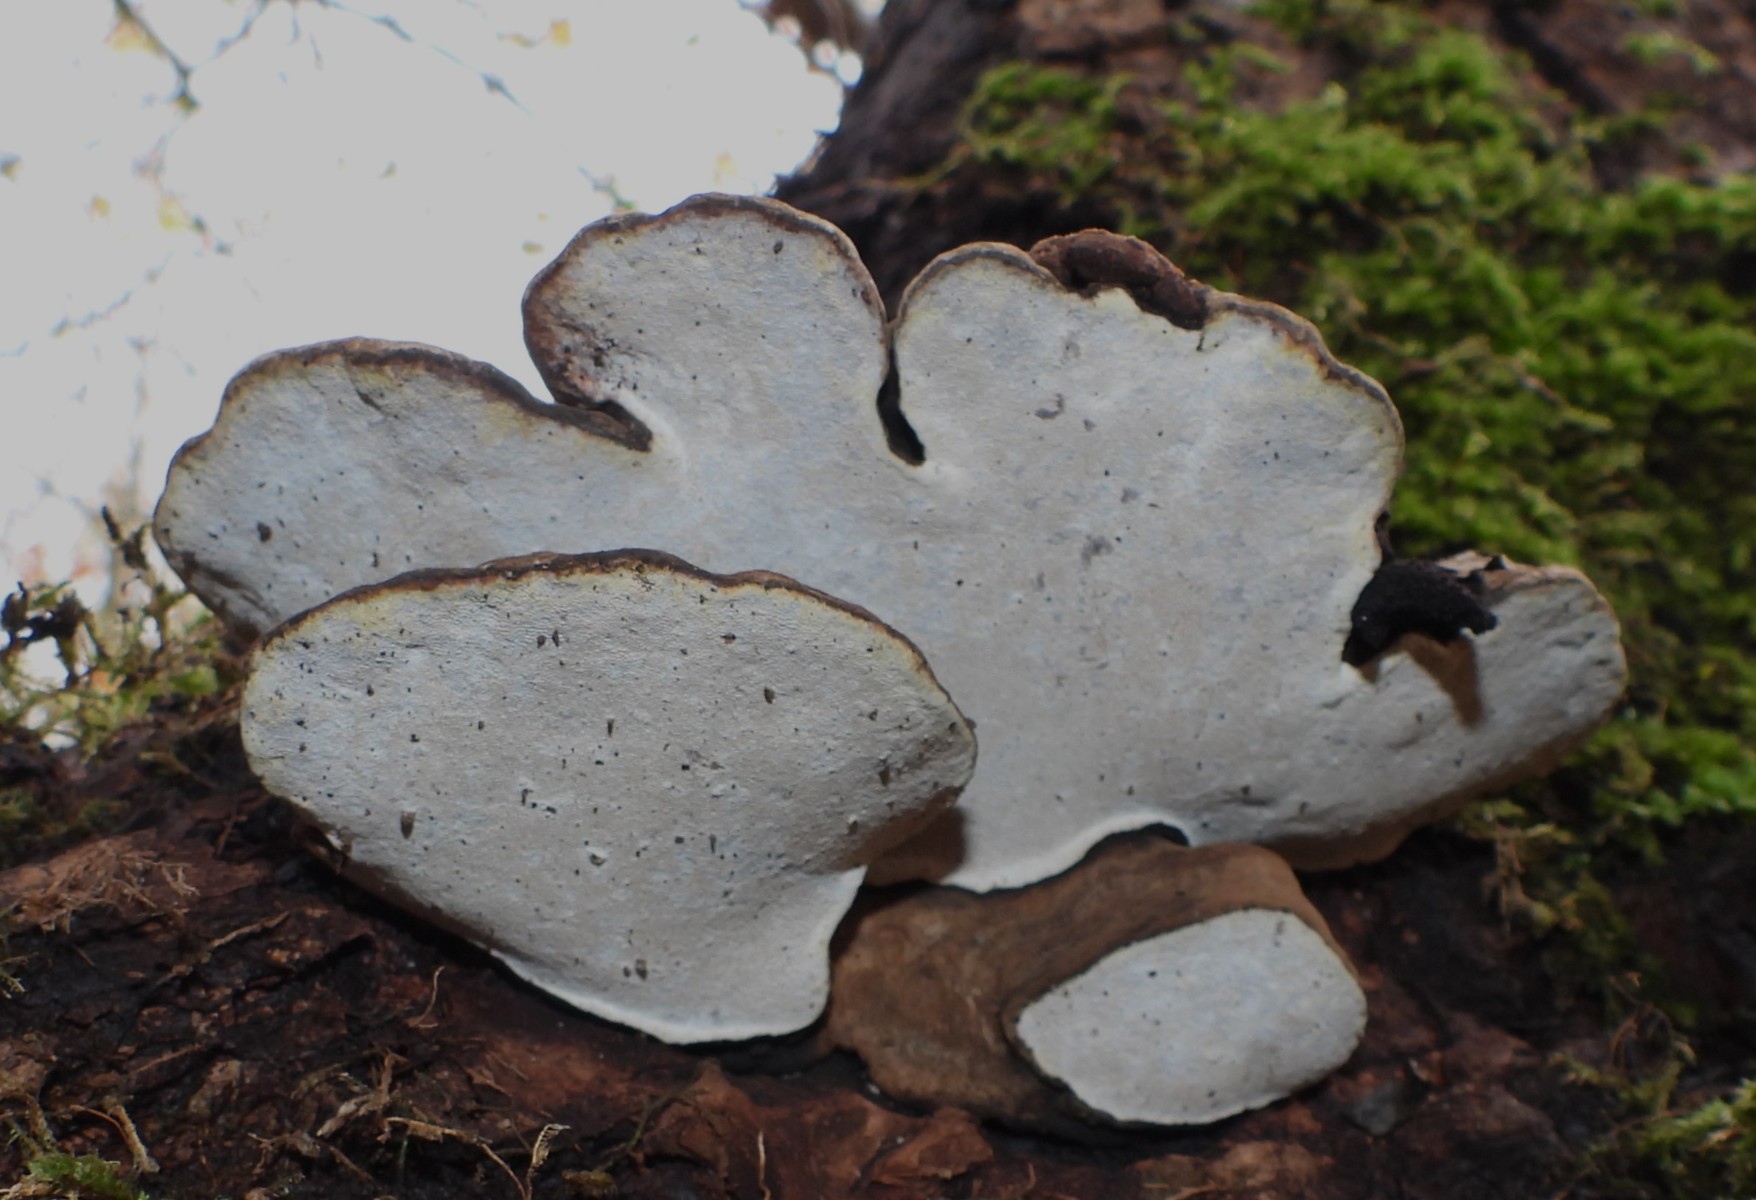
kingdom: Fungi
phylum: Basidiomycota
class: Agaricomycetes
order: Polyporales
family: Polyporaceae
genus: Ganoderma
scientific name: Ganoderma applanatum
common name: flad lakporesvamp
